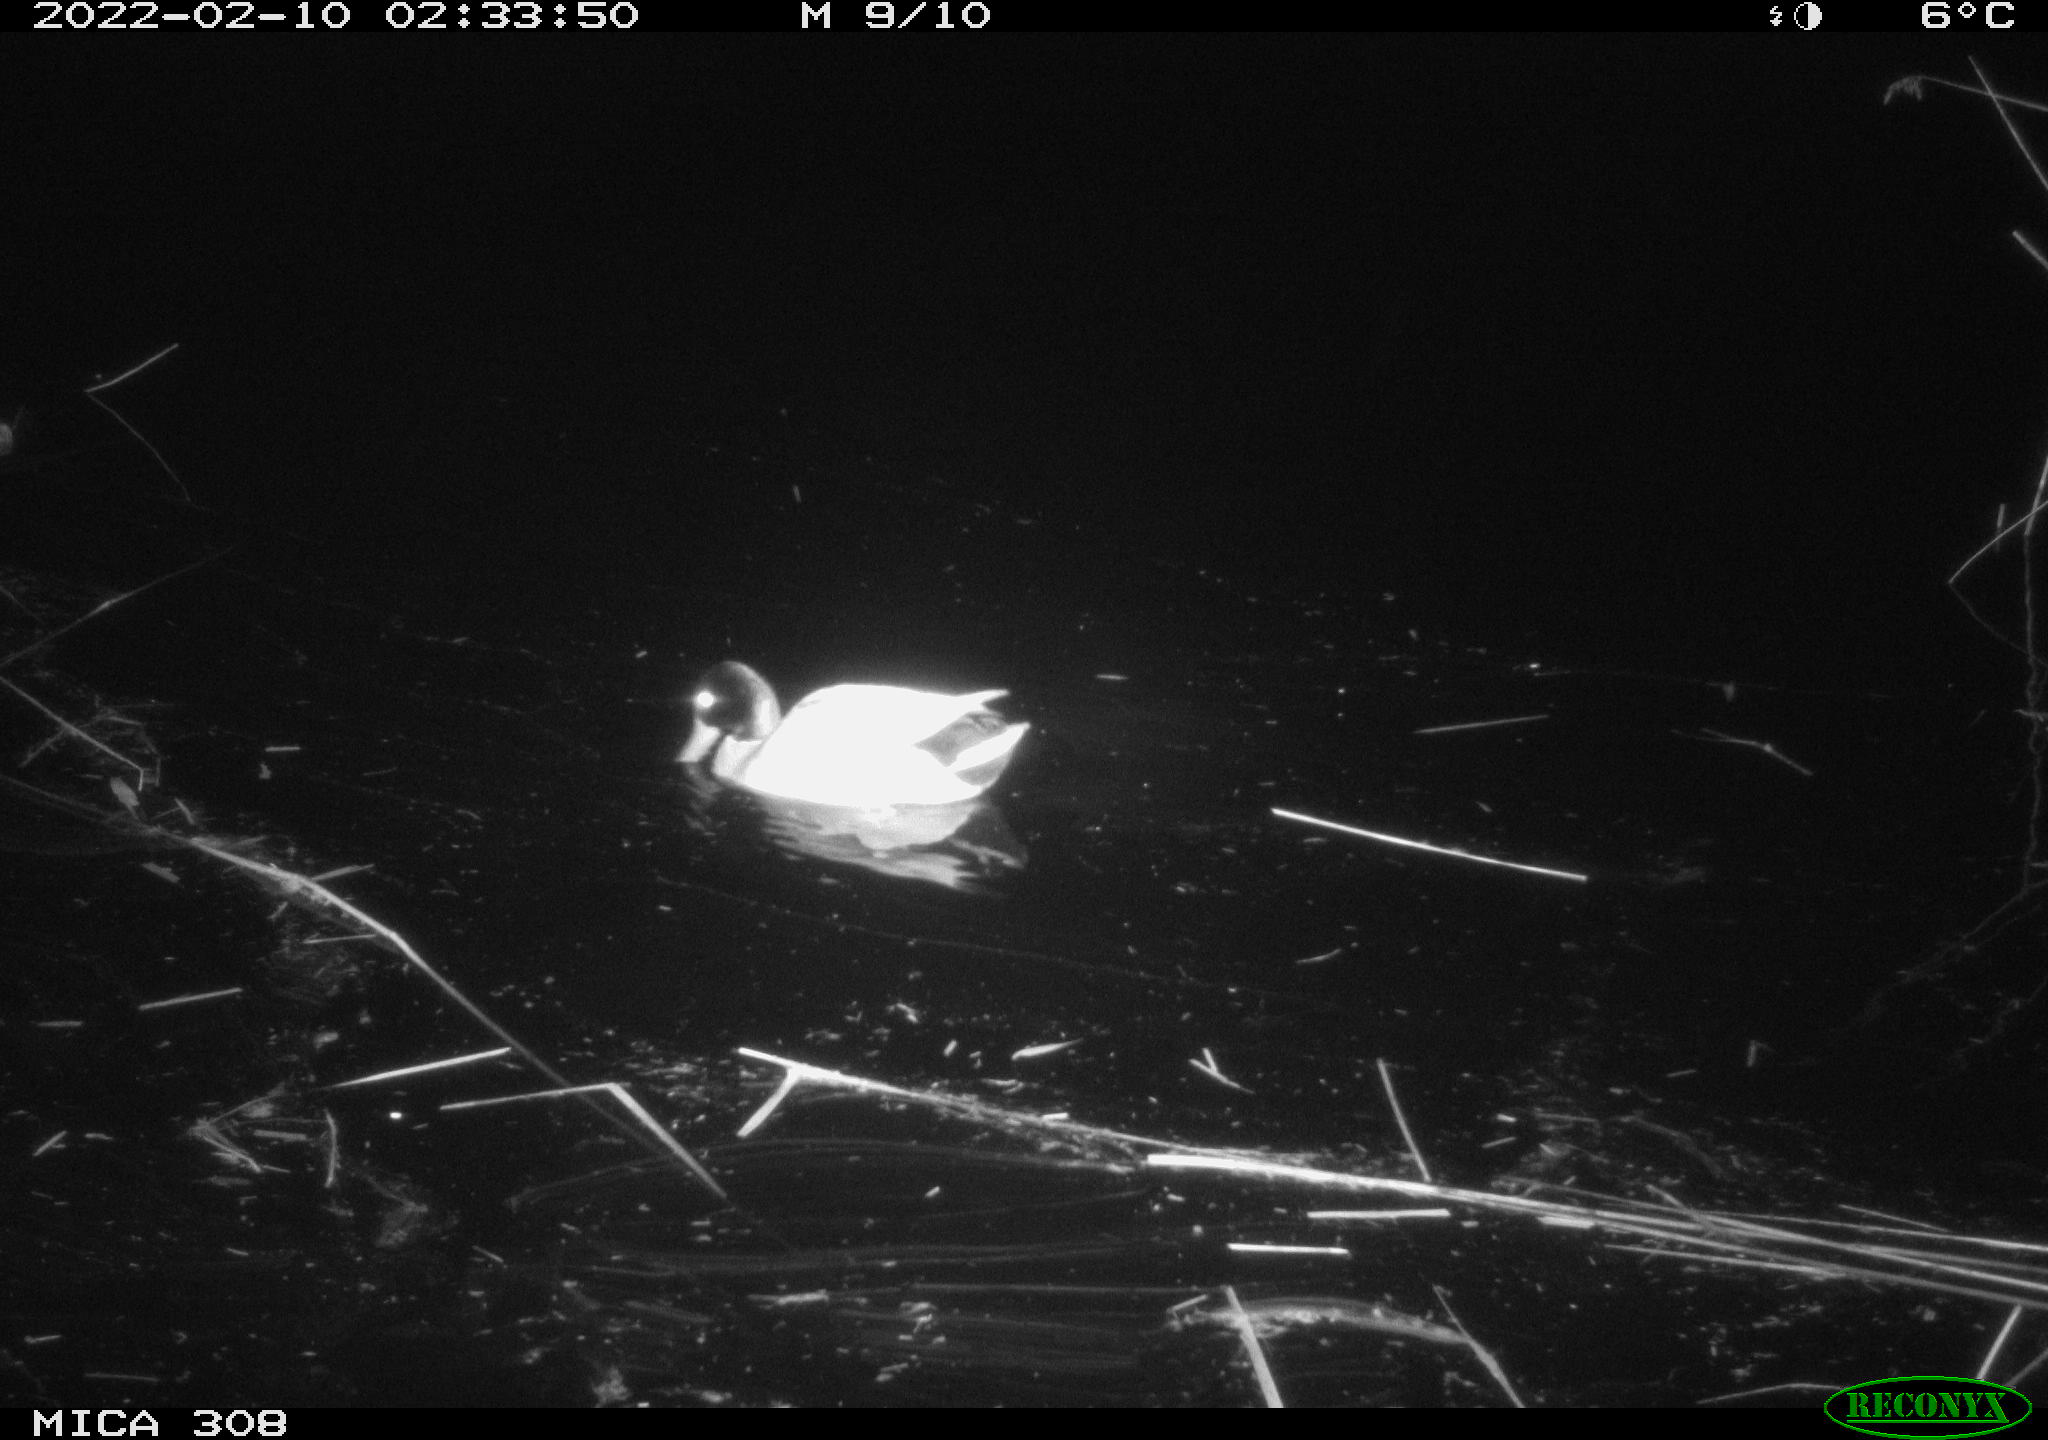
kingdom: Animalia
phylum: Chordata
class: Aves
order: Gruiformes
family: Rallidae
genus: Gallinula
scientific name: Gallinula chloropus
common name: Common moorhen
